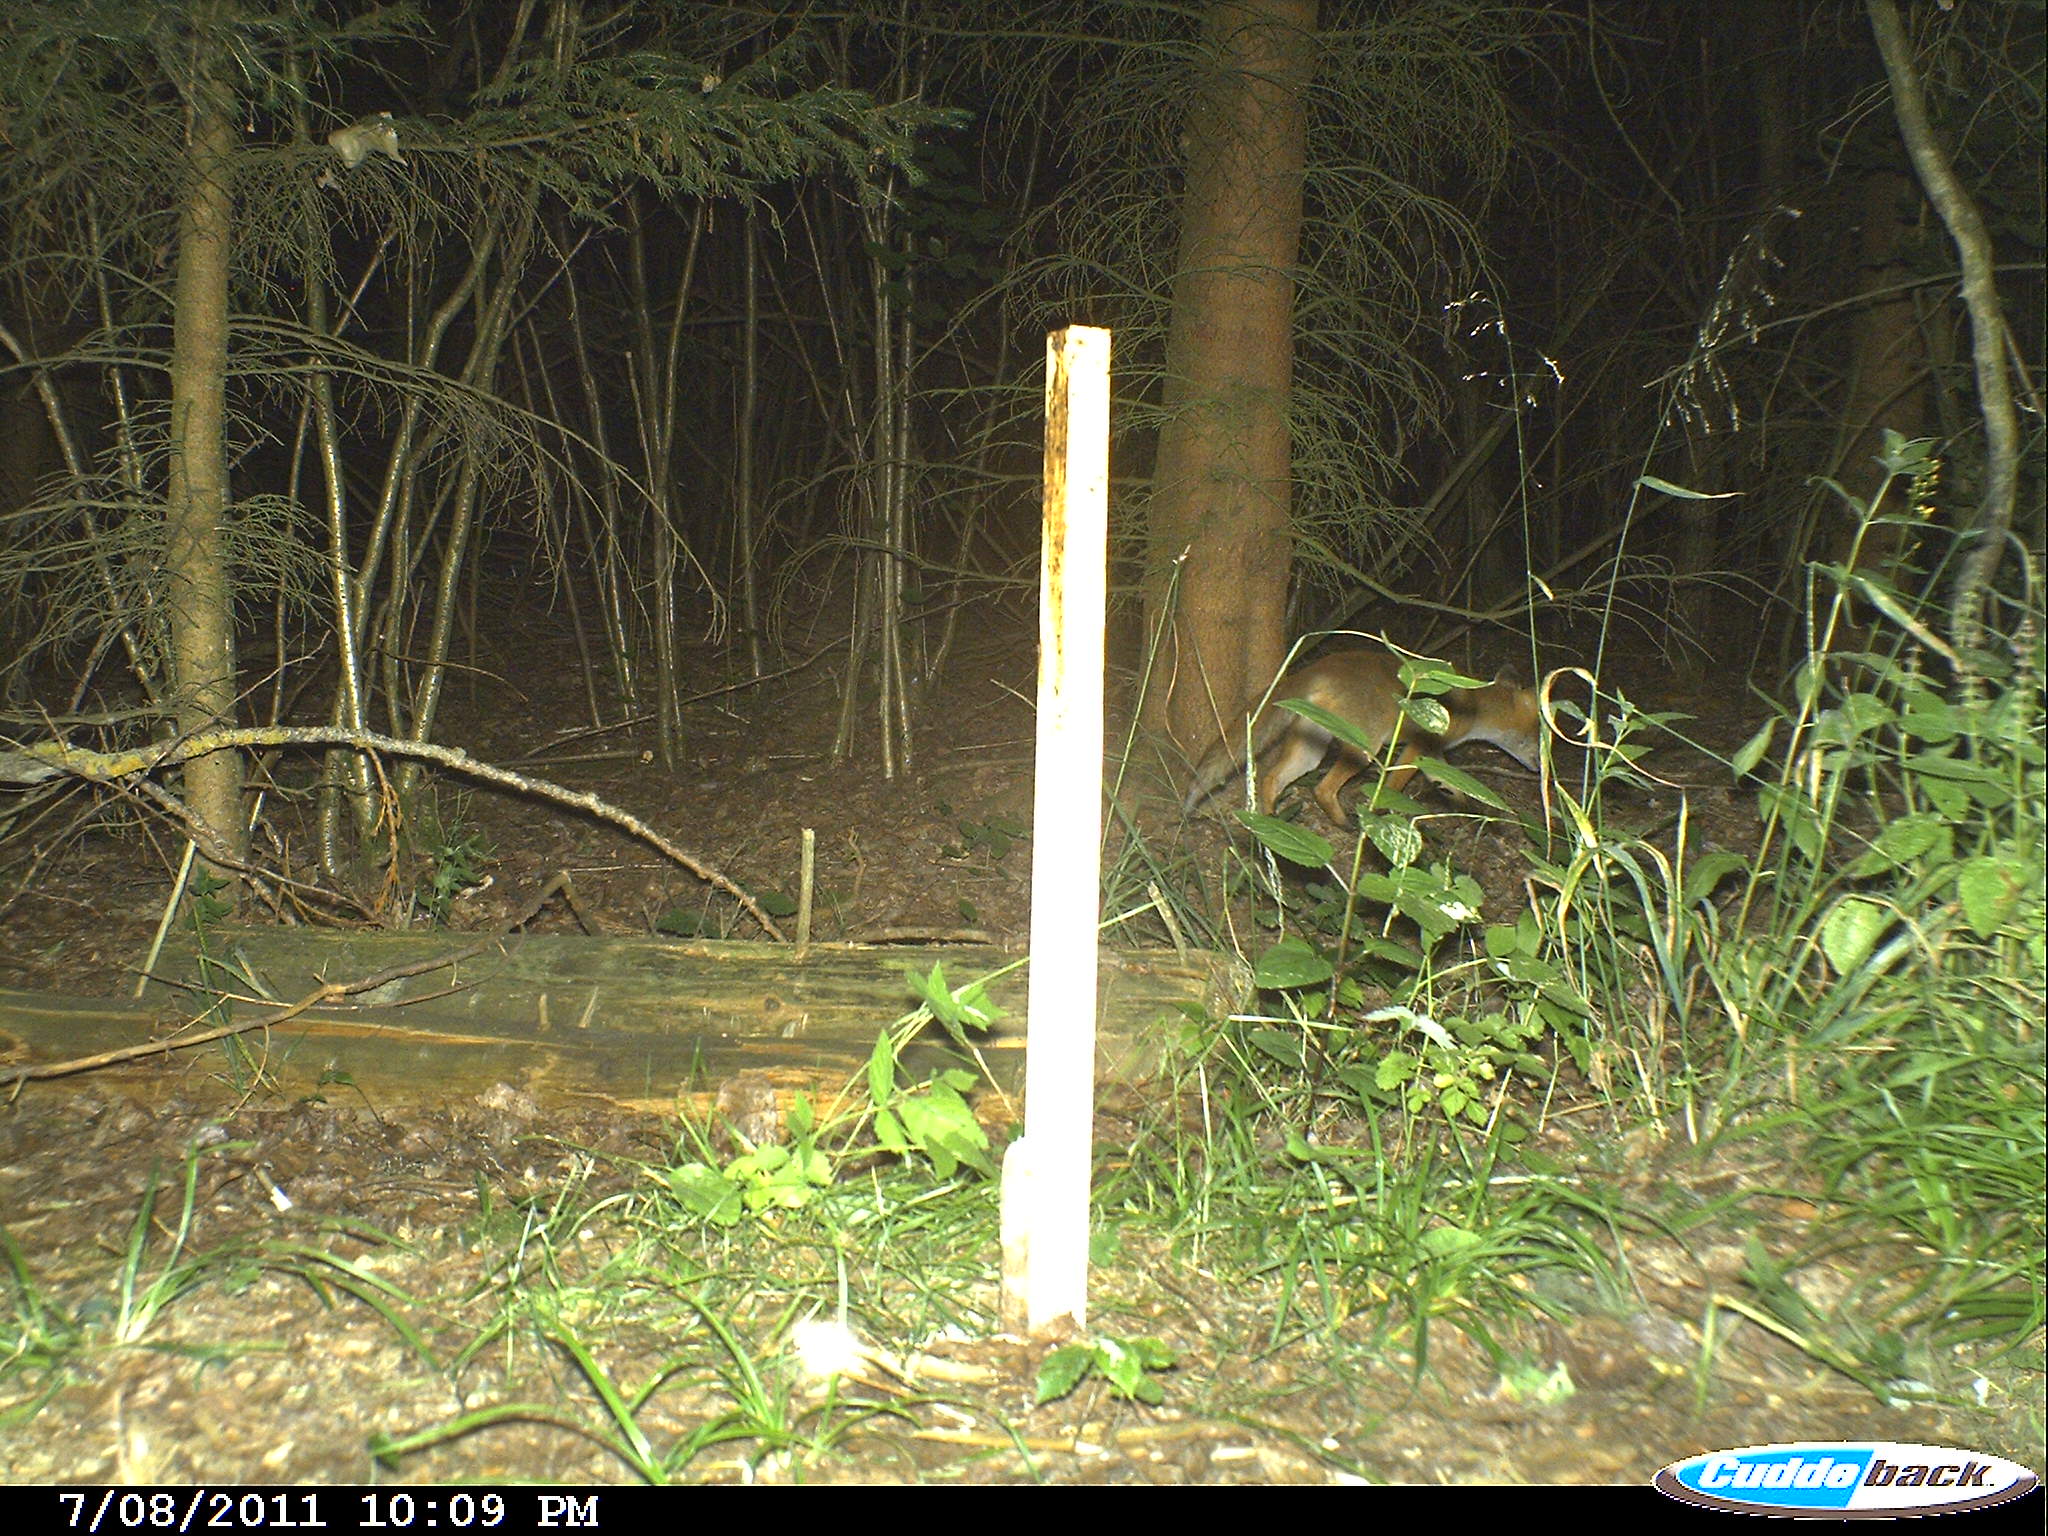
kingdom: Animalia
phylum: Chordata
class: Mammalia
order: Carnivora
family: Canidae
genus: Vulpes
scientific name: Vulpes vulpes
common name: Red fox
